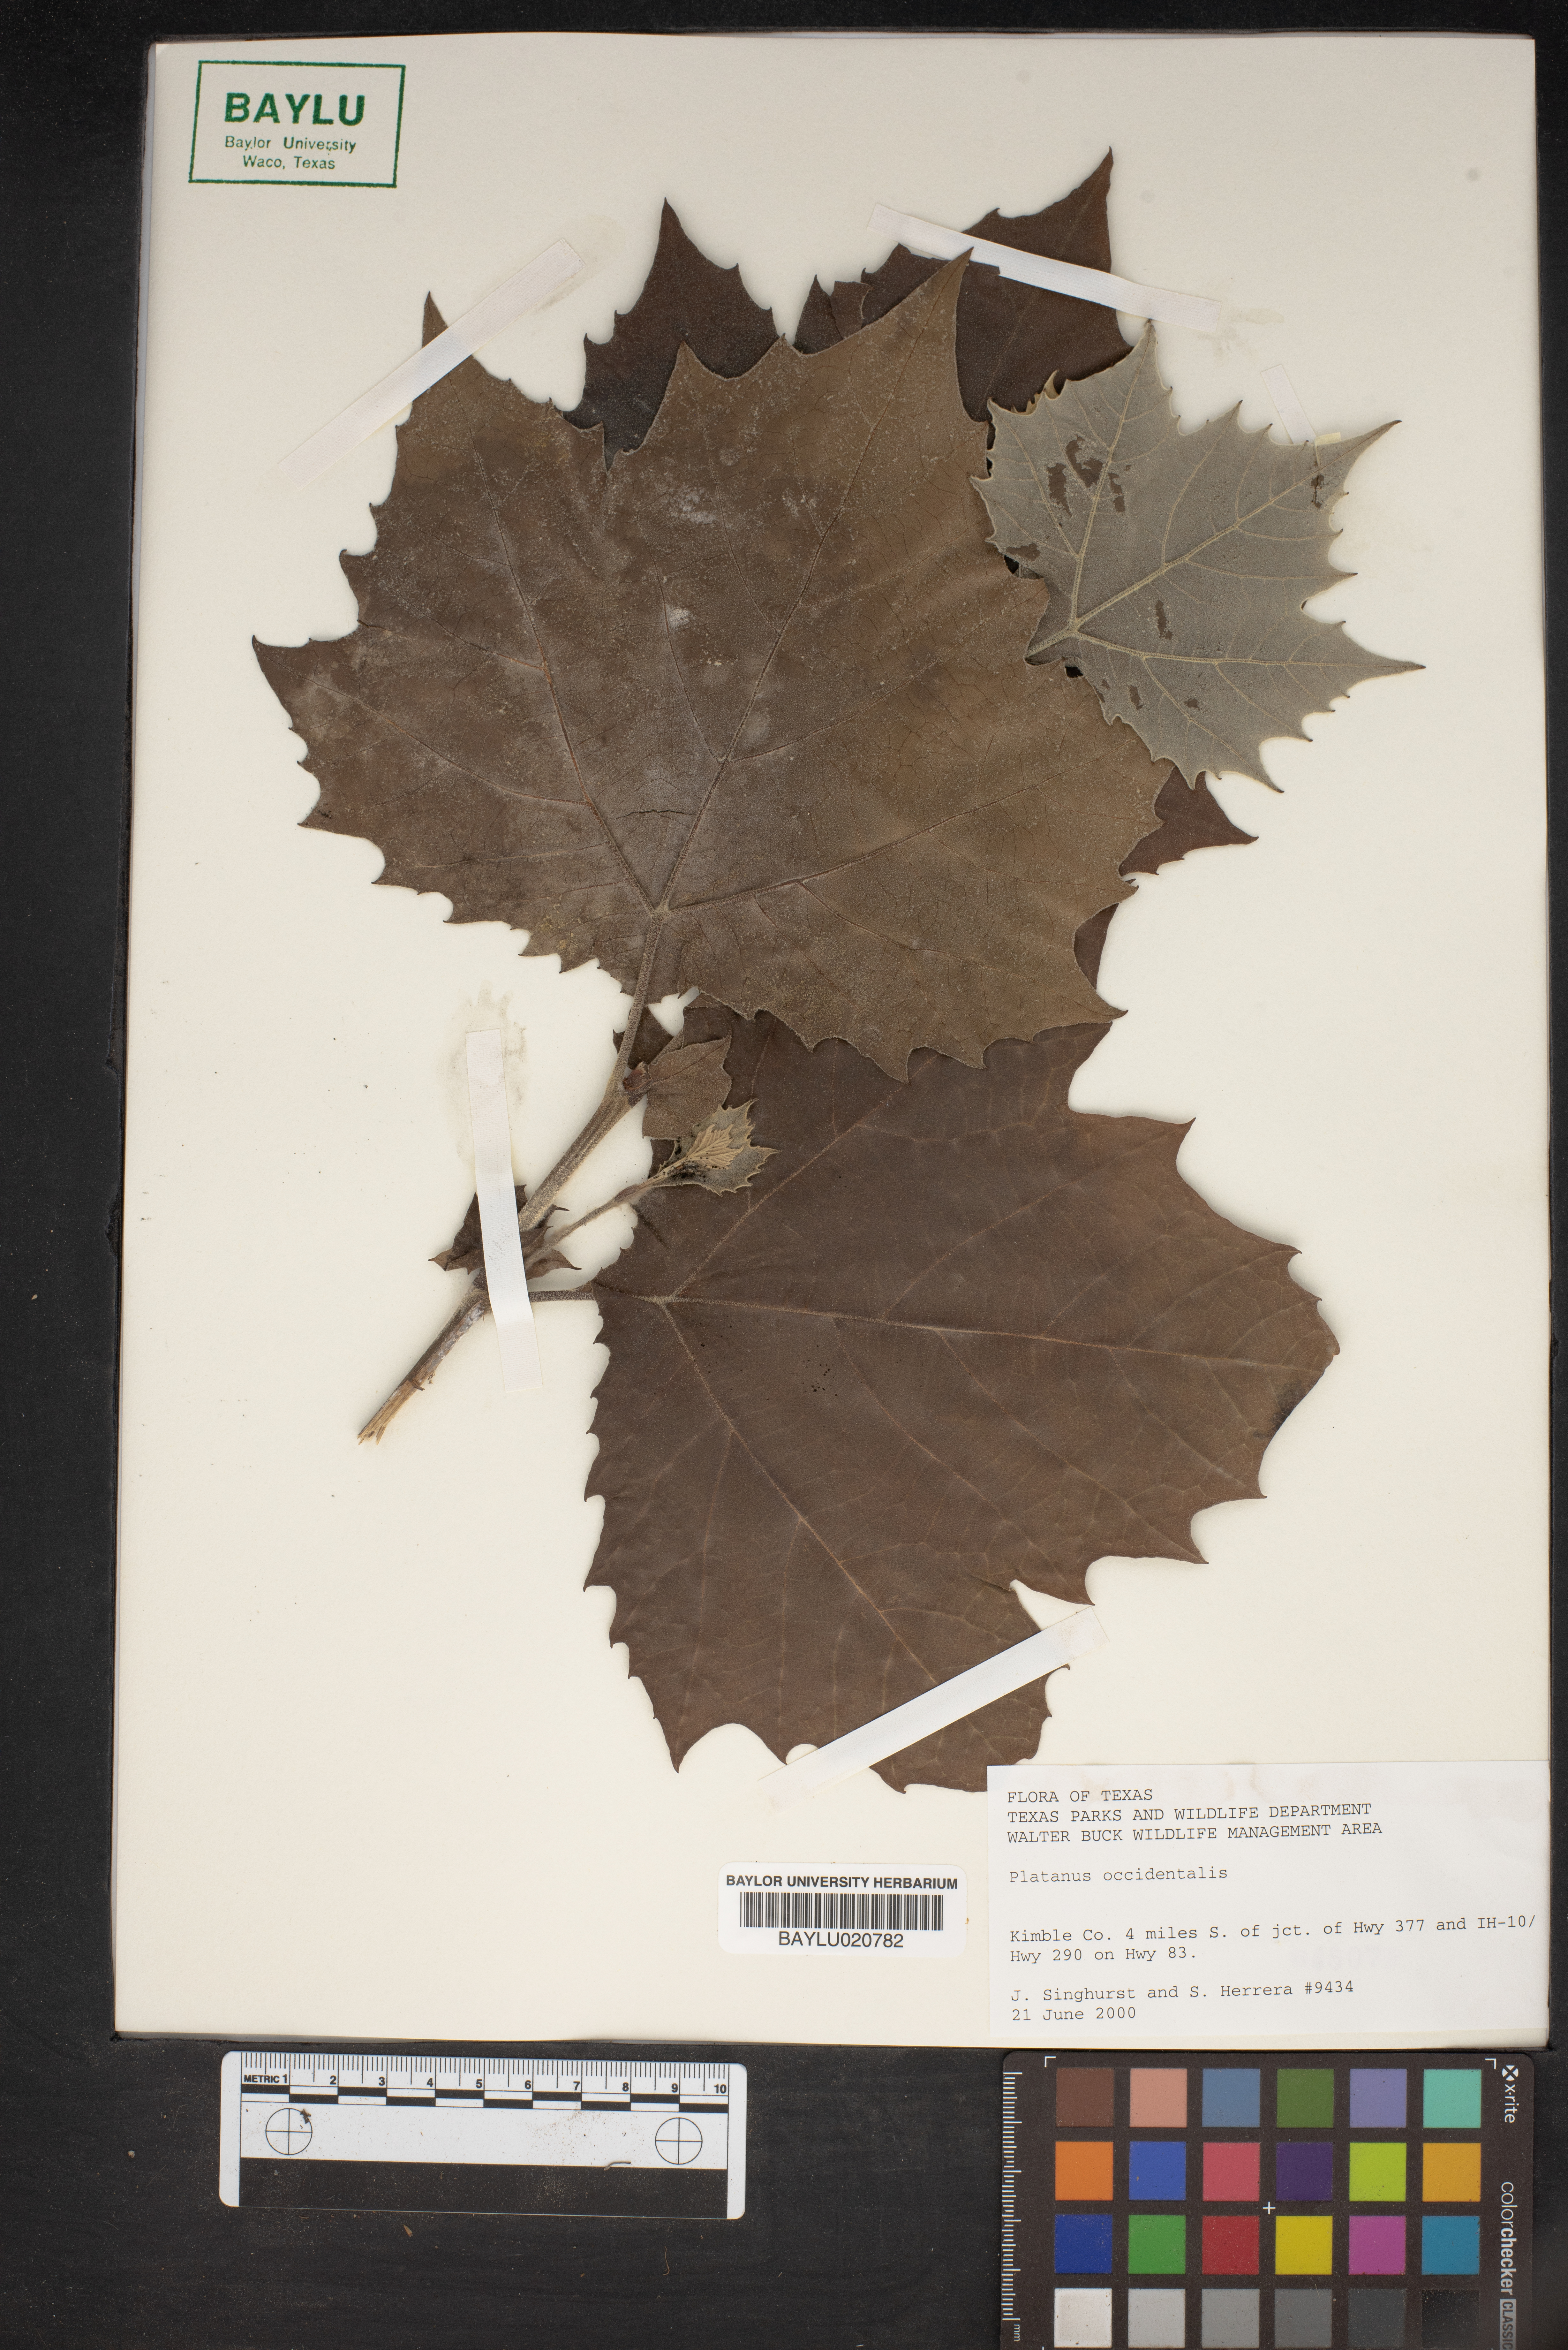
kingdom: Plantae
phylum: Tracheophyta
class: Magnoliopsida
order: Proteales
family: Platanaceae
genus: Platanus
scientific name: Platanus occidentalis
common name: American sycamore
